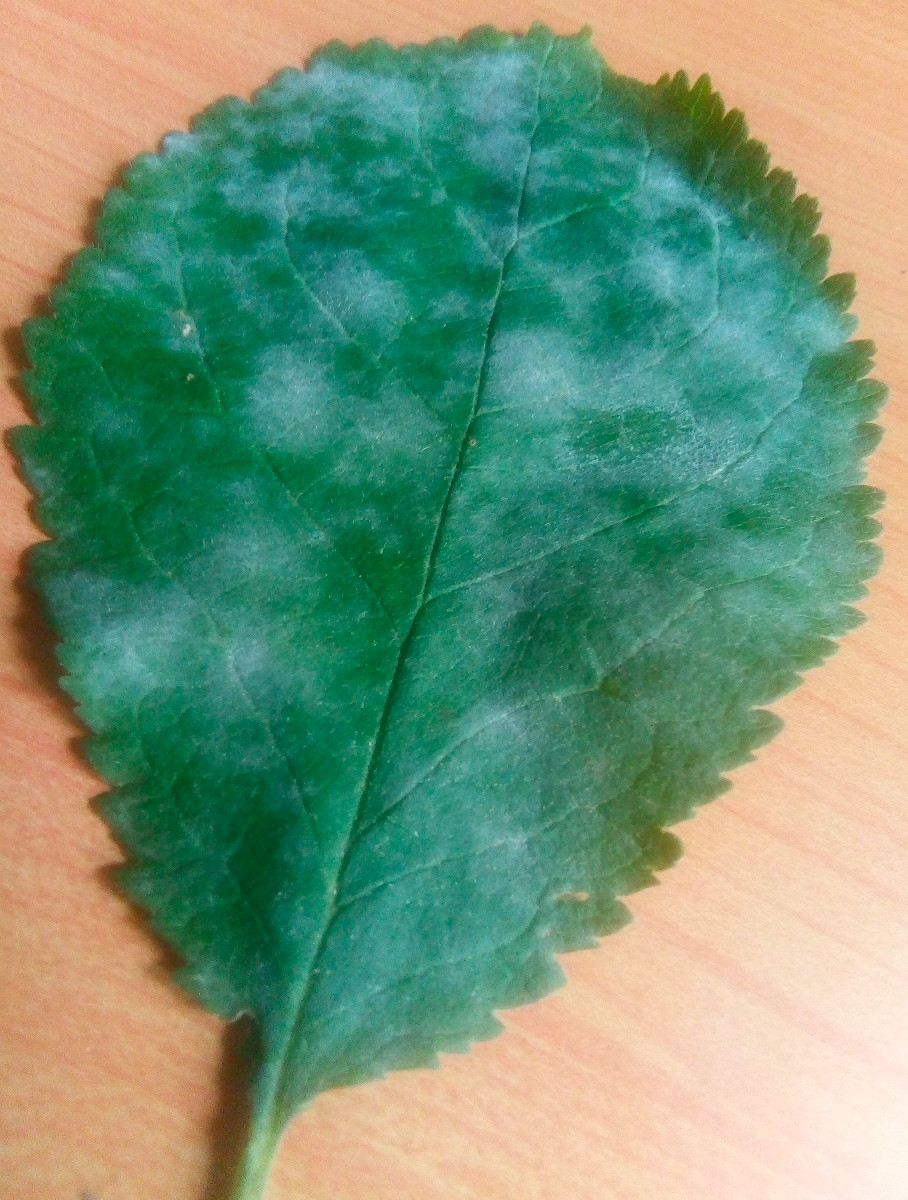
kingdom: Fungi
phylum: Ascomycota
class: Leotiomycetes
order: Helotiales
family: Erysiphaceae
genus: Erysiphe
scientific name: Erysiphe prunastri
